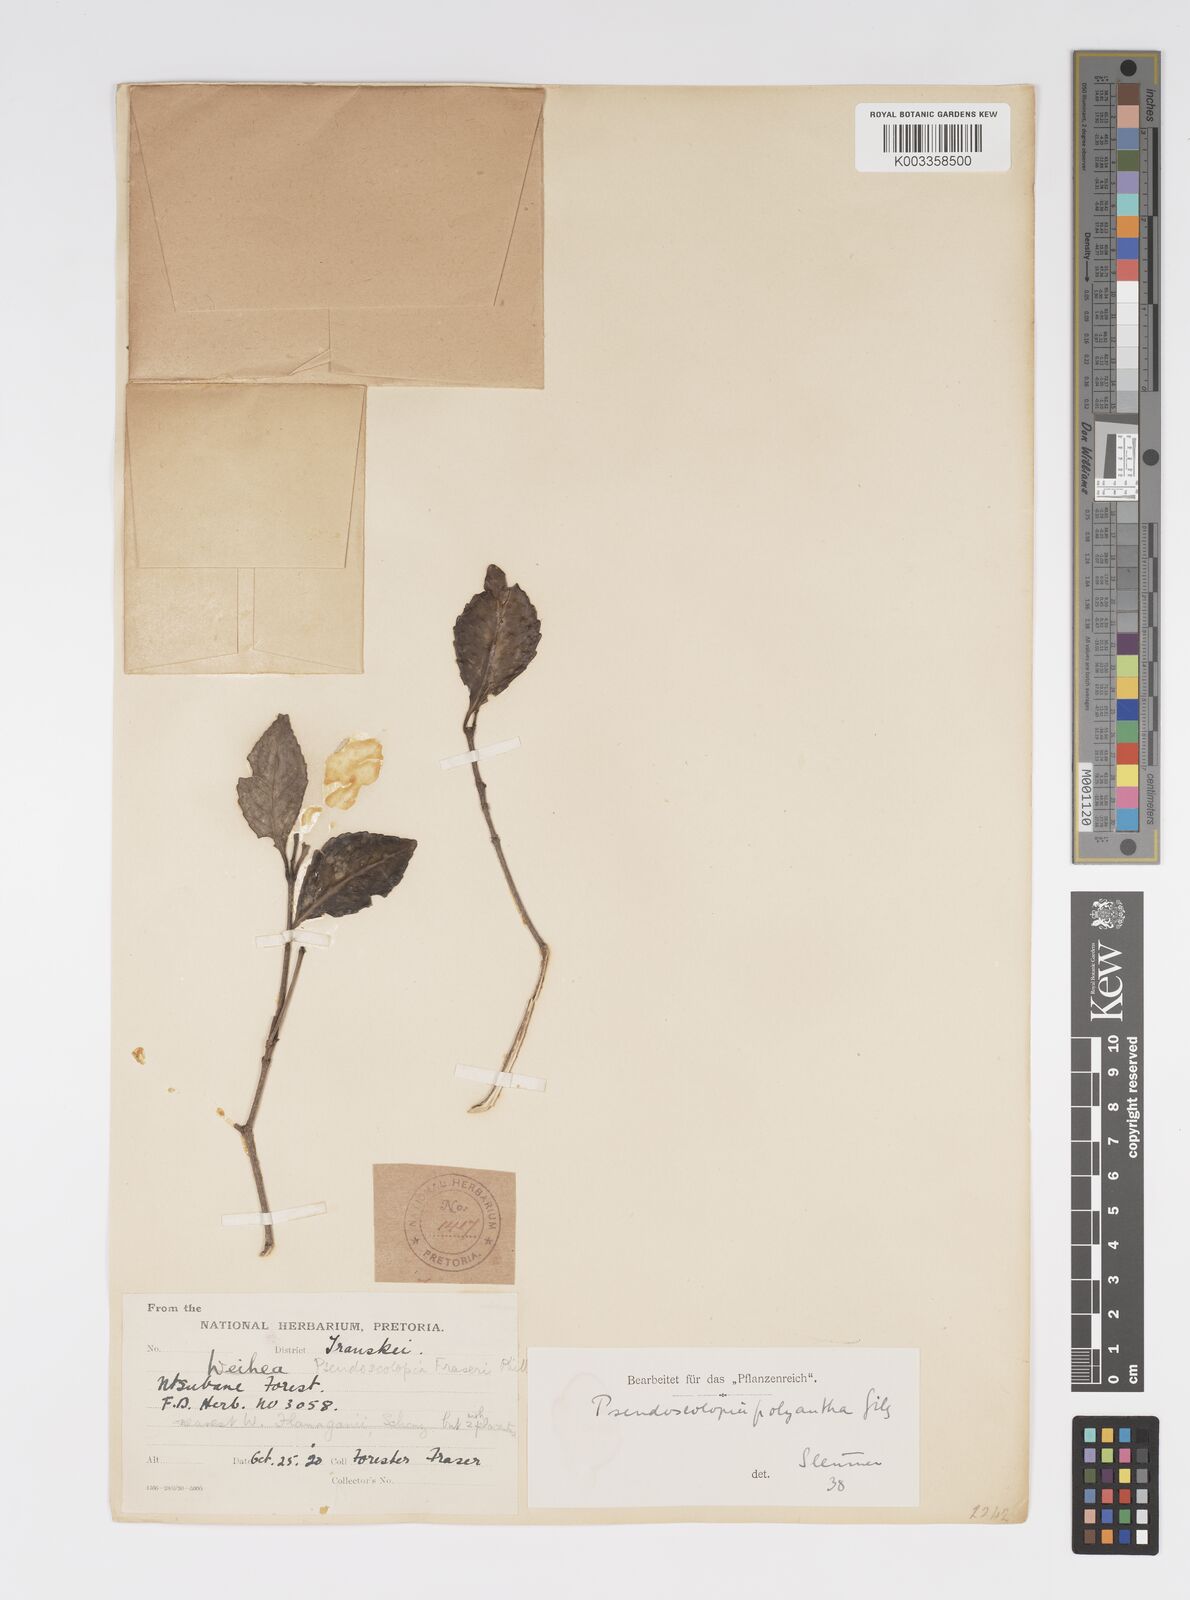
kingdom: Plantae
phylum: Tracheophyta
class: Magnoliopsida
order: Malpighiales
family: Salicaceae
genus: Pseudoscolopia
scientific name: Pseudoscolopia polyantha
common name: Sandstone red-stem
